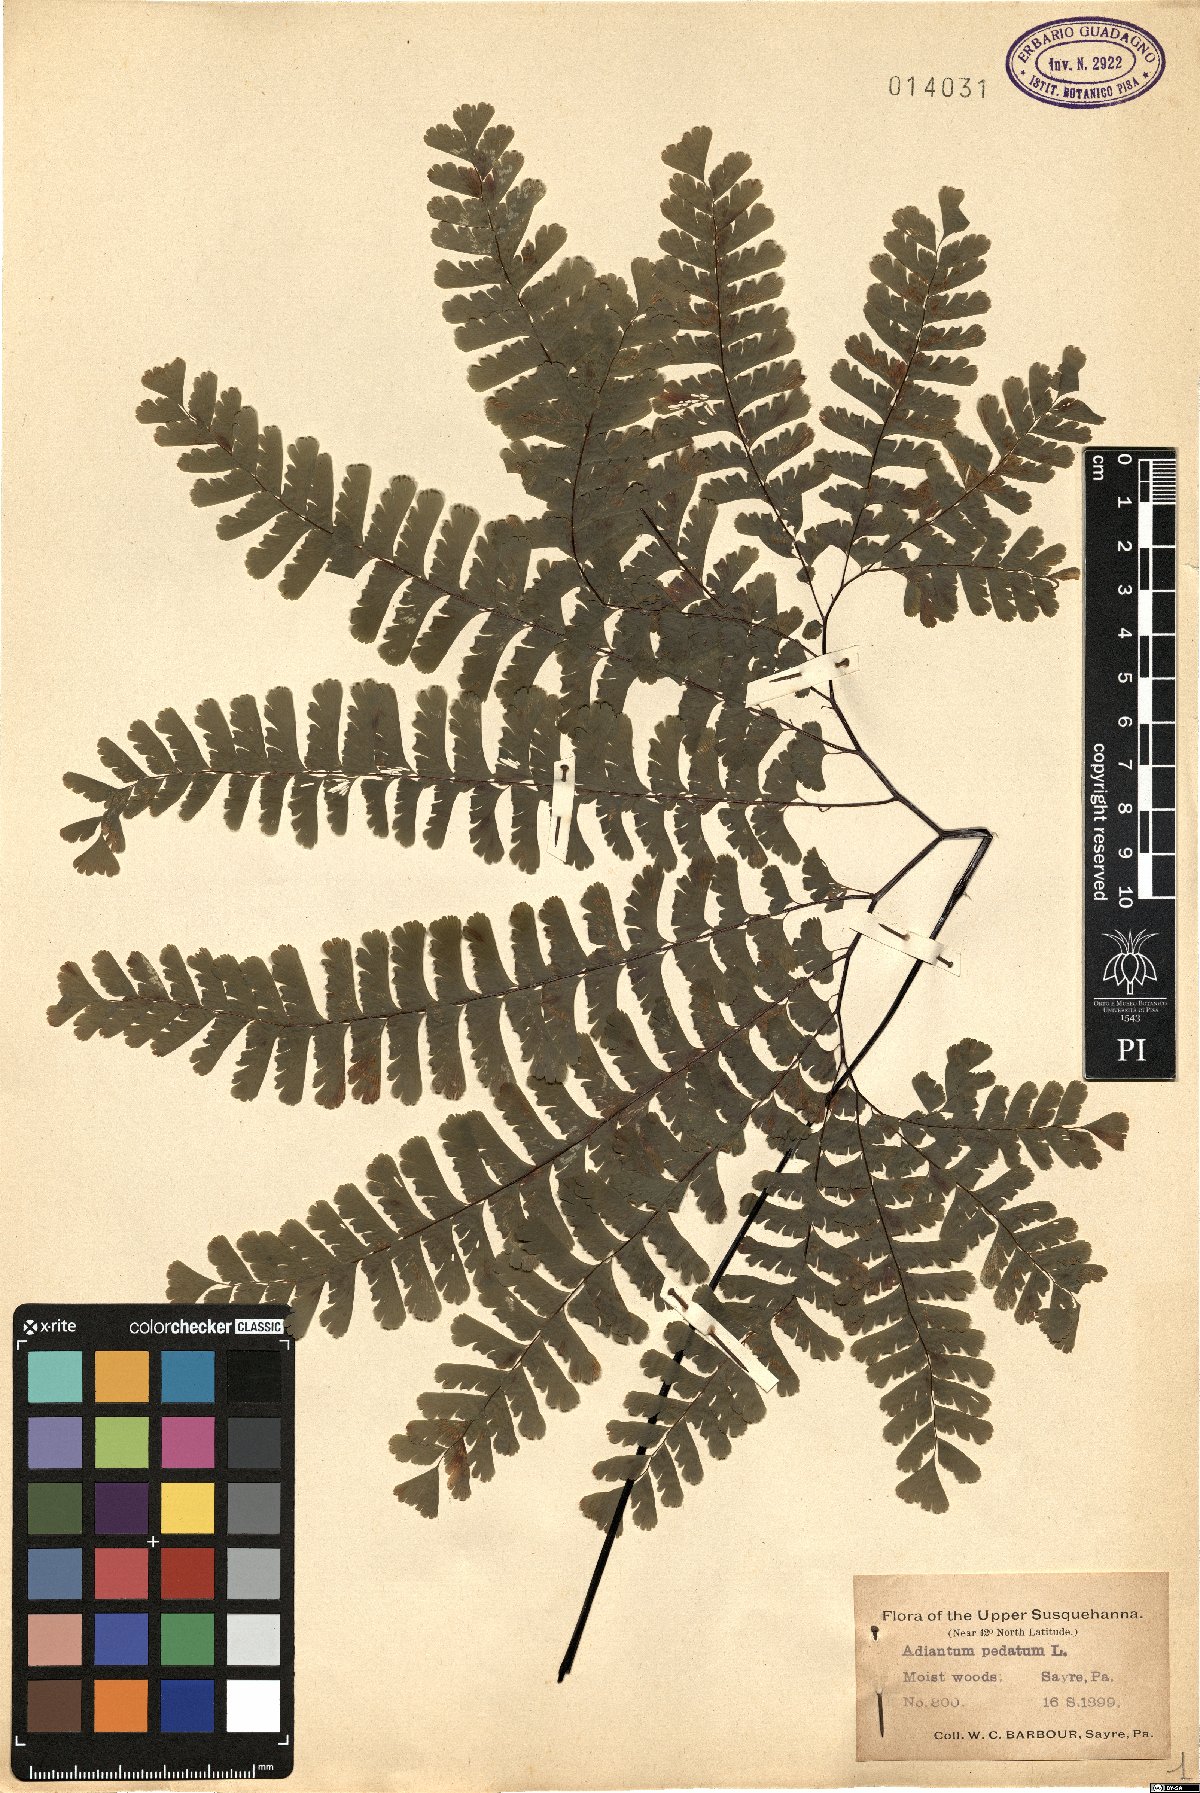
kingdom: Plantae
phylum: Tracheophyta
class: Polypodiopsida
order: Polypodiales
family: Pteridaceae
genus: Adiantum
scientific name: Adiantum pedatum
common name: Five-finger fern
